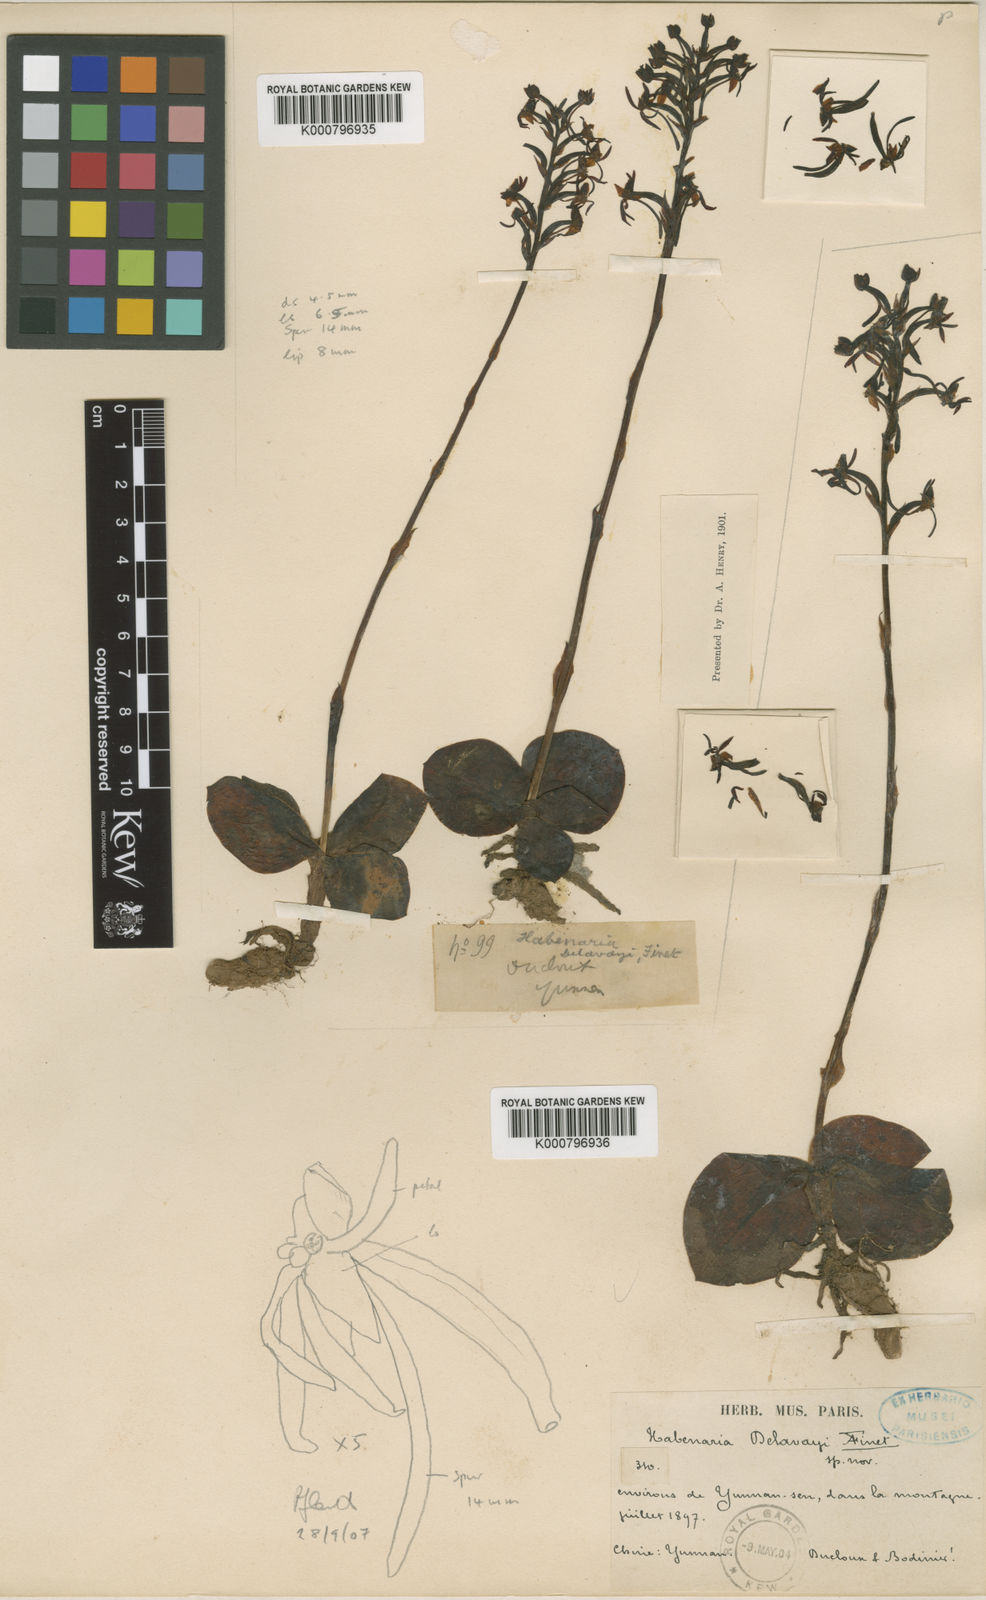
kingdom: Plantae
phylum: Tracheophyta
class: Liliopsida
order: Asparagales
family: Orchidaceae
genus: Habenaria
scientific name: Habenaria delavayi
